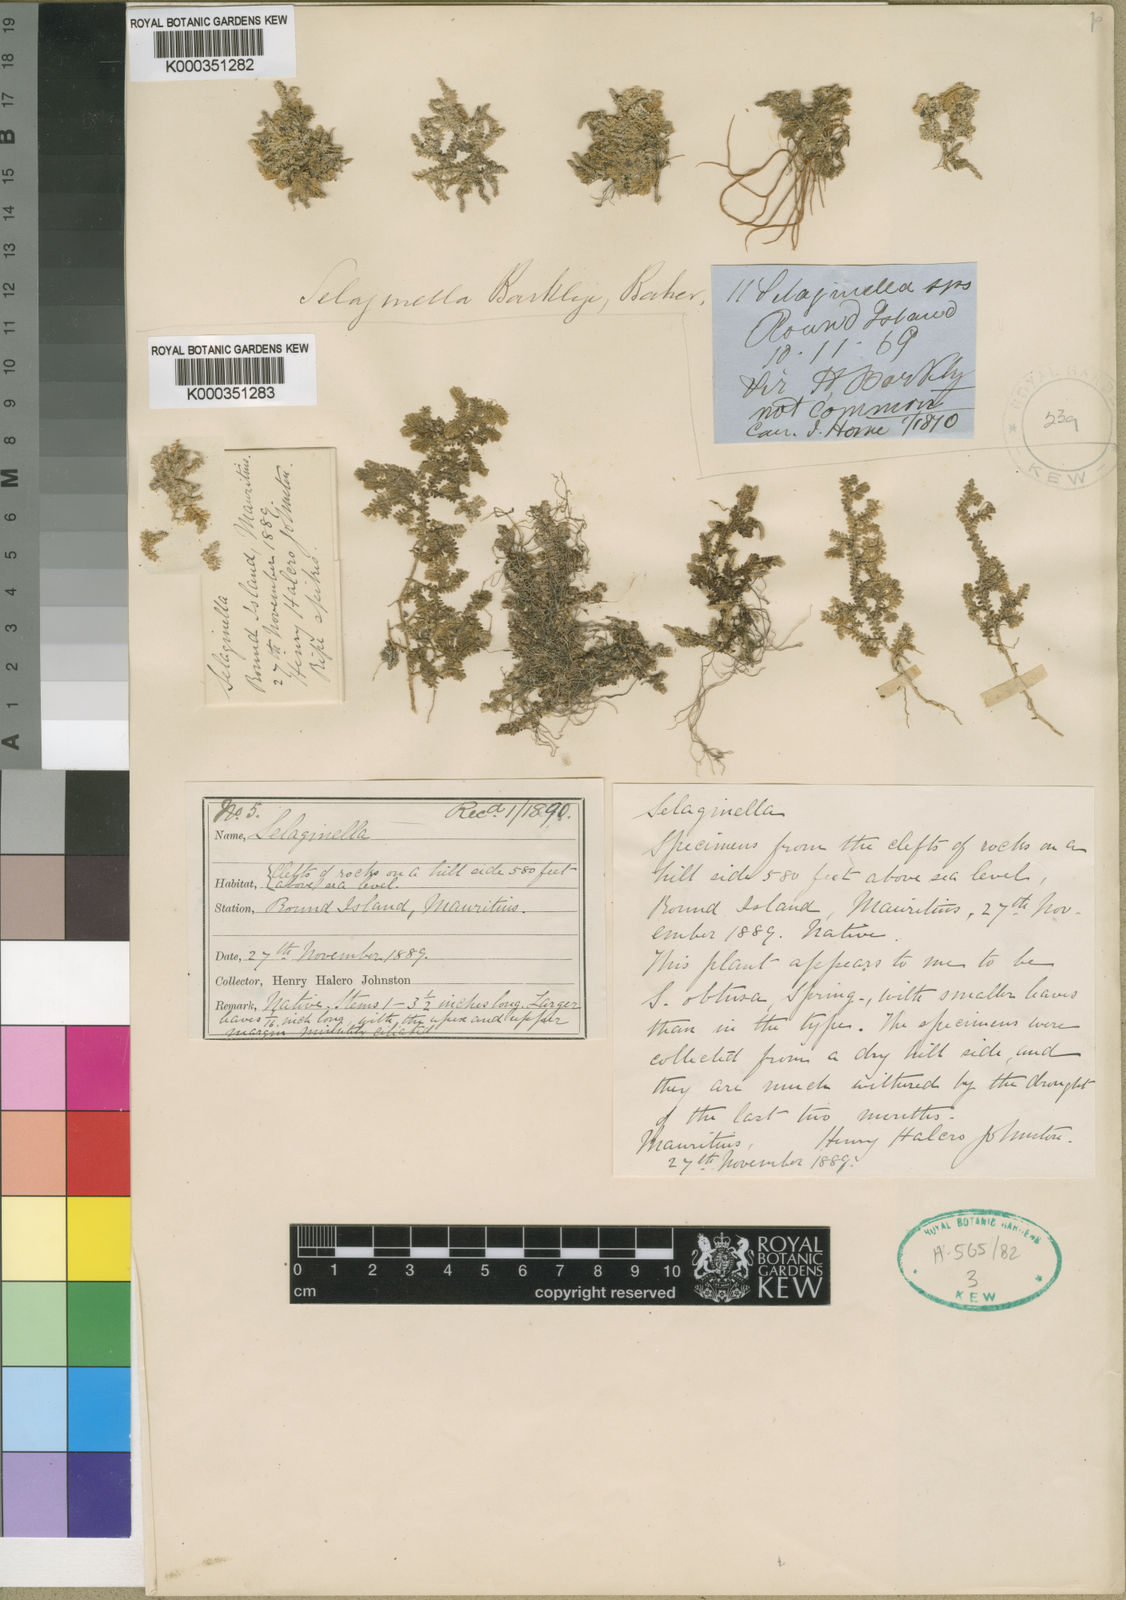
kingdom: Plantae
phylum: Tracheophyta
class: Lycopodiopsida
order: Selaginellales
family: Selaginellaceae
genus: Selaginella
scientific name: Selaginella
